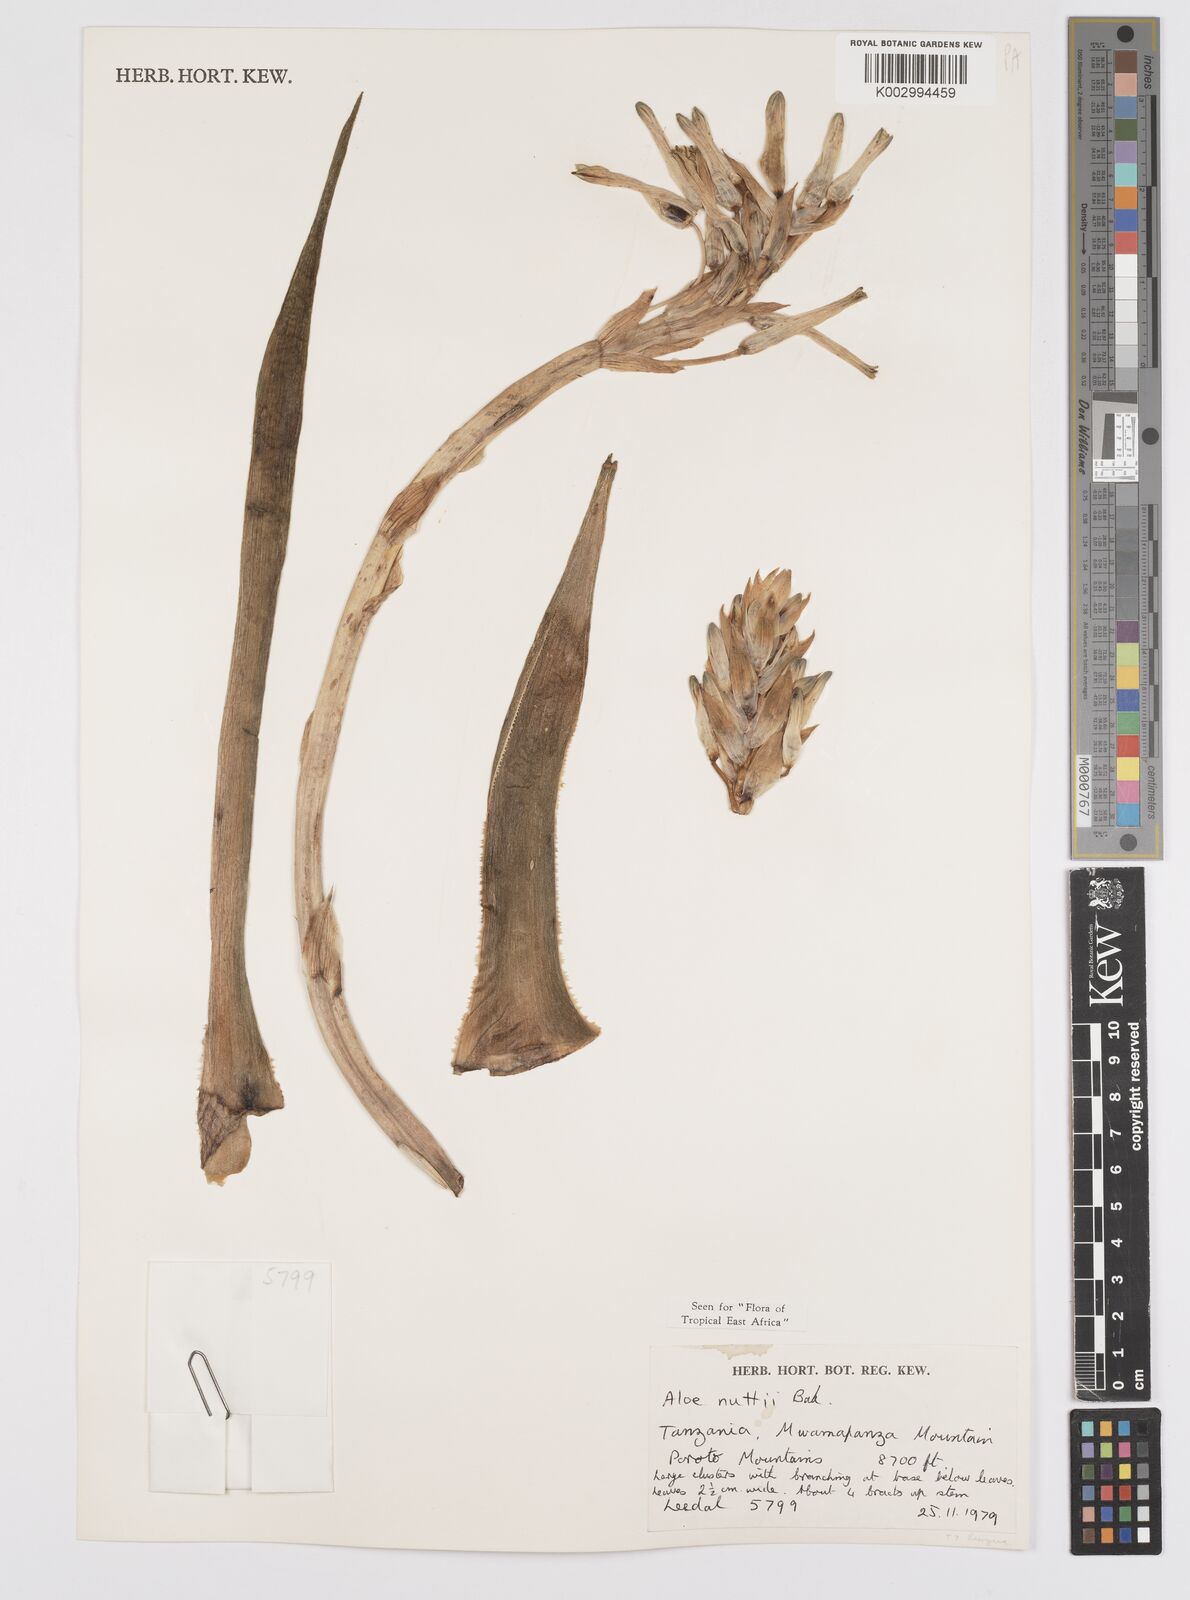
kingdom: Plantae
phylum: Tracheophyta
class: Liliopsida
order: Asparagales
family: Asphodelaceae
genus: Aloe
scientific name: Aloe nuttii
